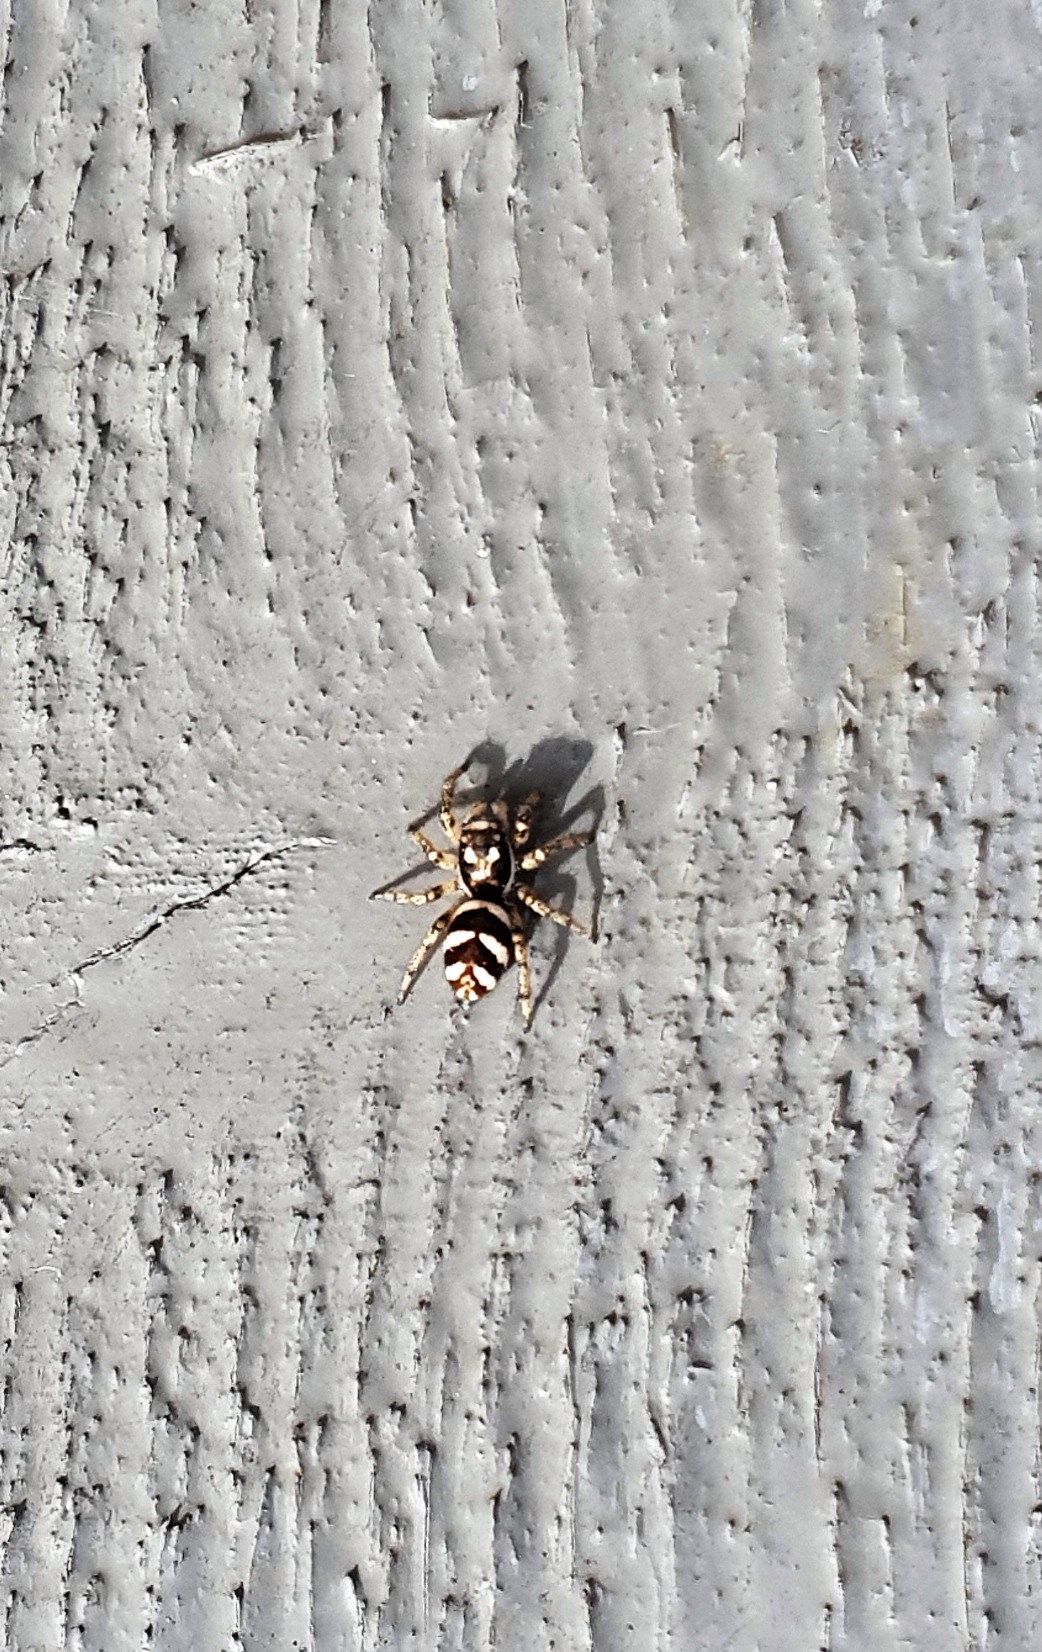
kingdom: Animalia
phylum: Arthropoda
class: Arachnida
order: Araneae
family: Salticidae
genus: Salticus
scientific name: Salticus scenicus
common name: Almindelig zebraedderkop
